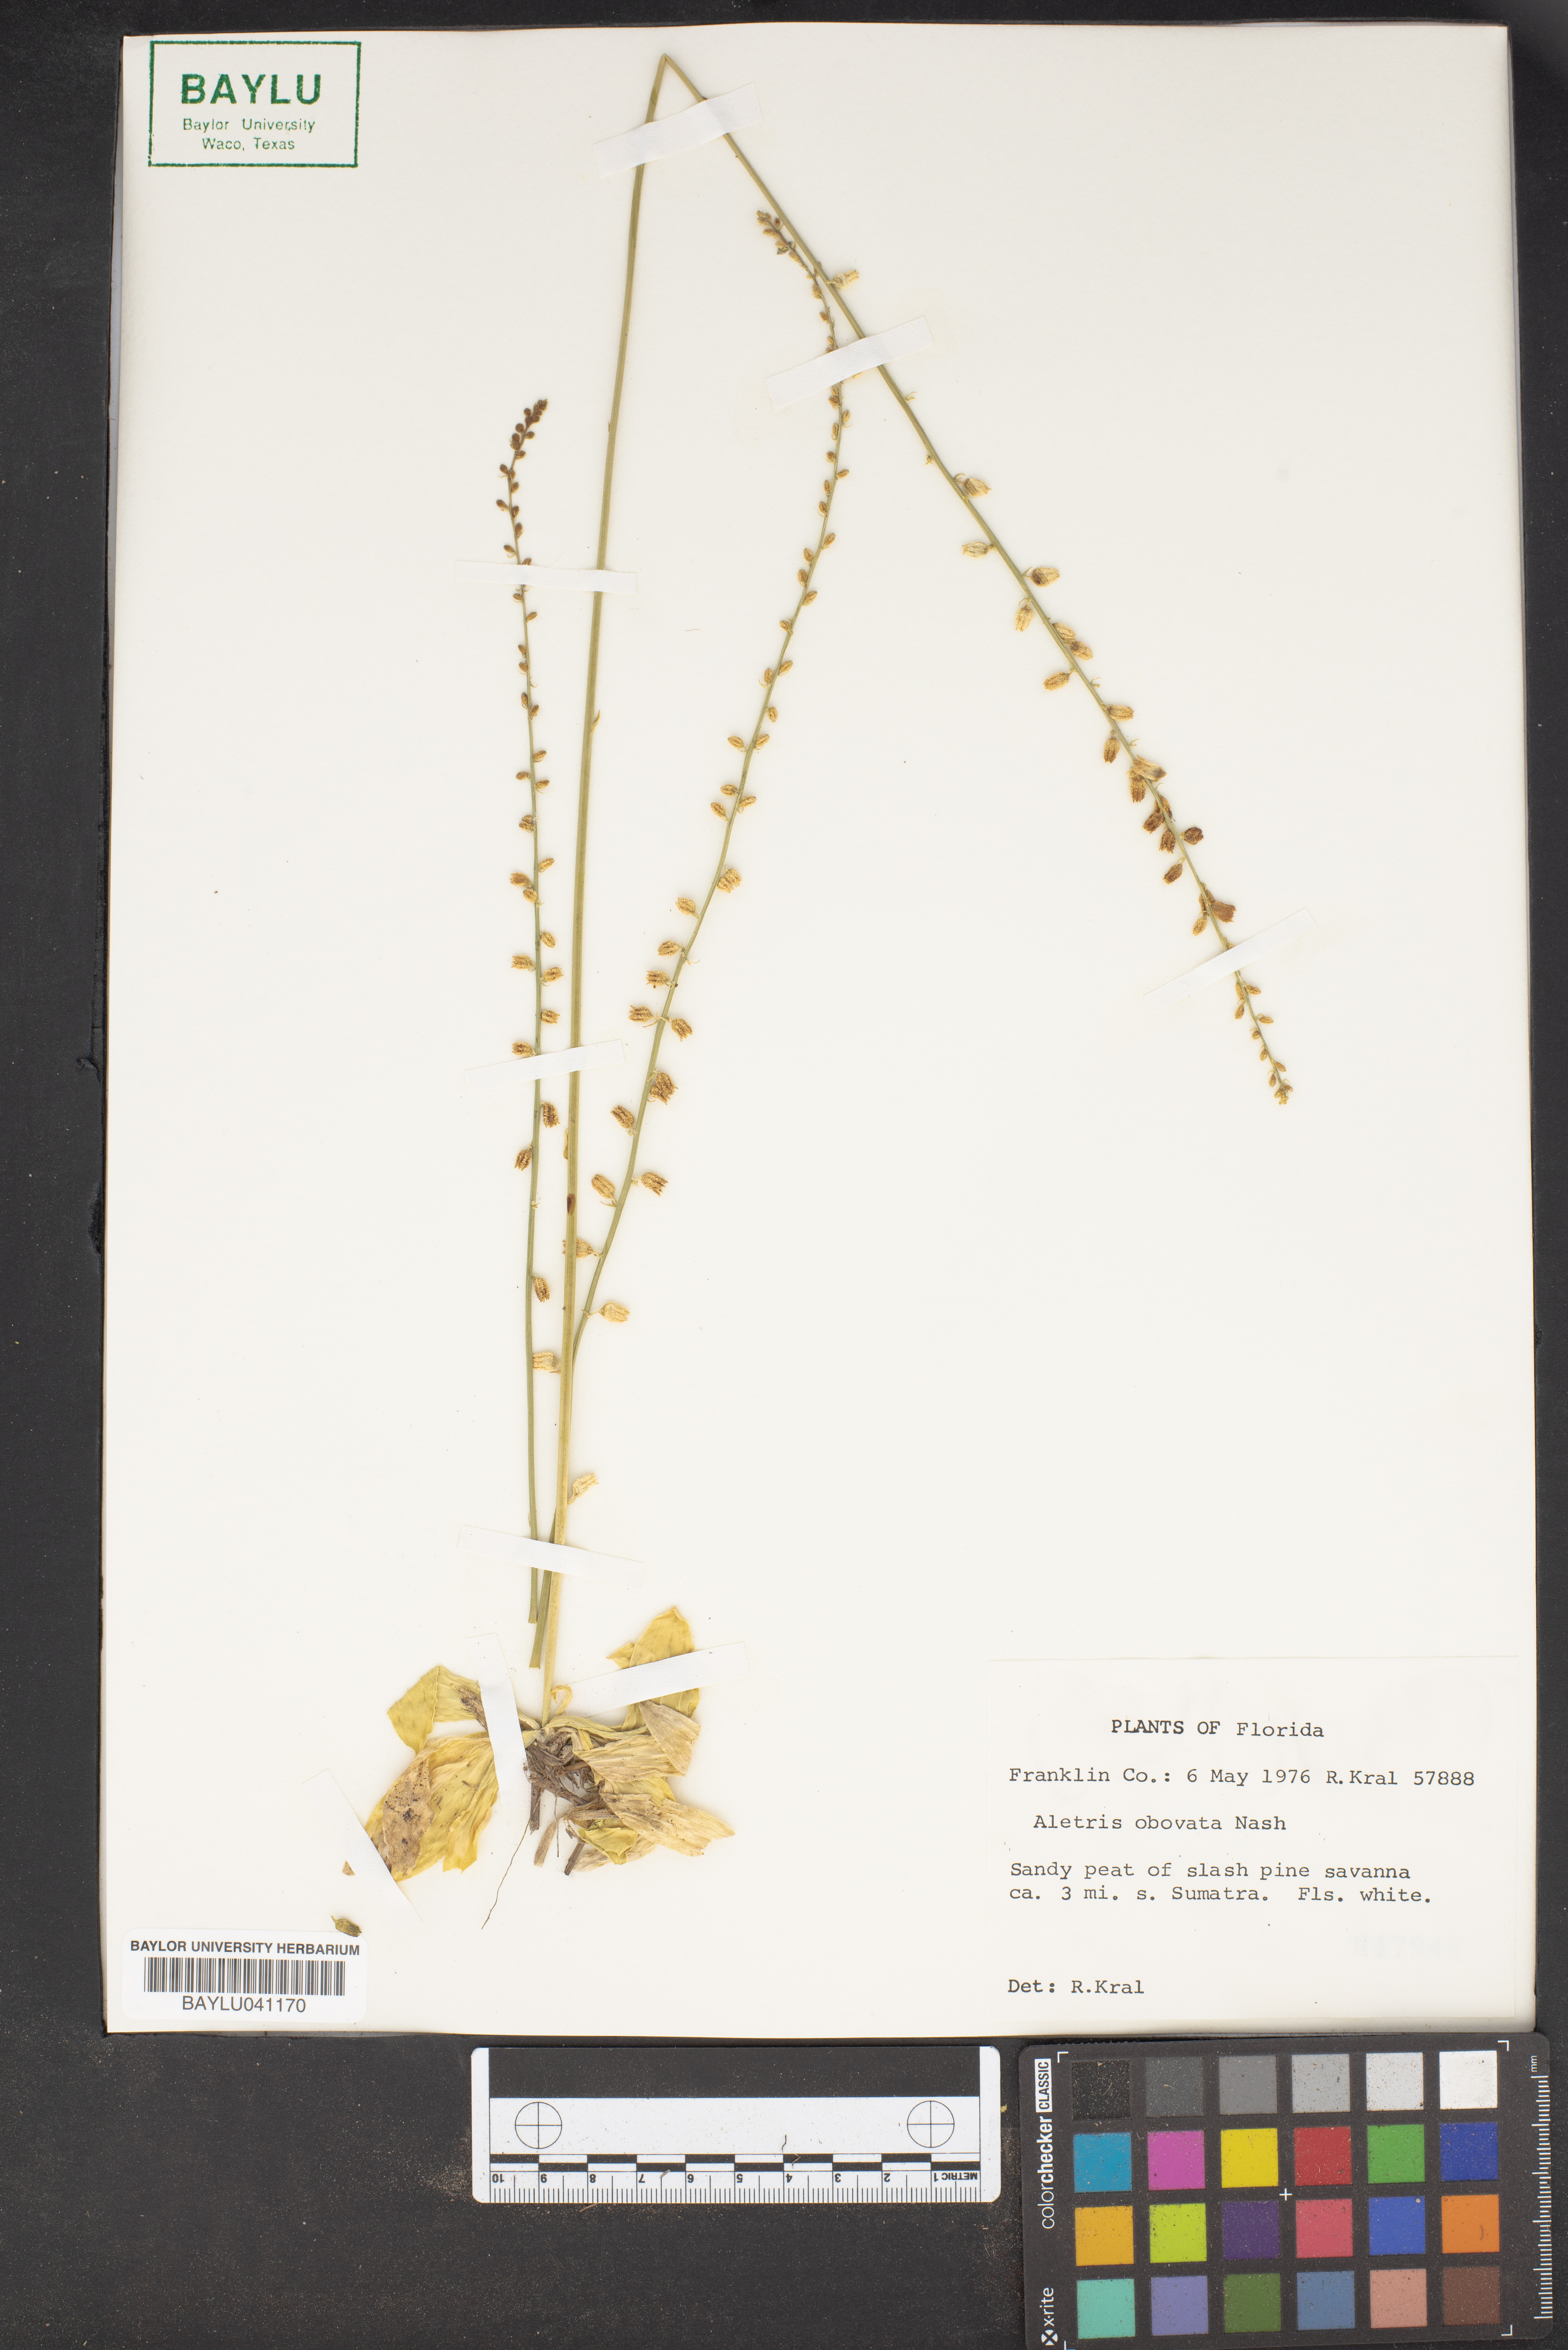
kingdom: Plantae
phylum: Tracheophyta
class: Liliopsida
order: Dioscoreales
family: Nartheciaceae
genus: Aletris
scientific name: Aletris obovata
